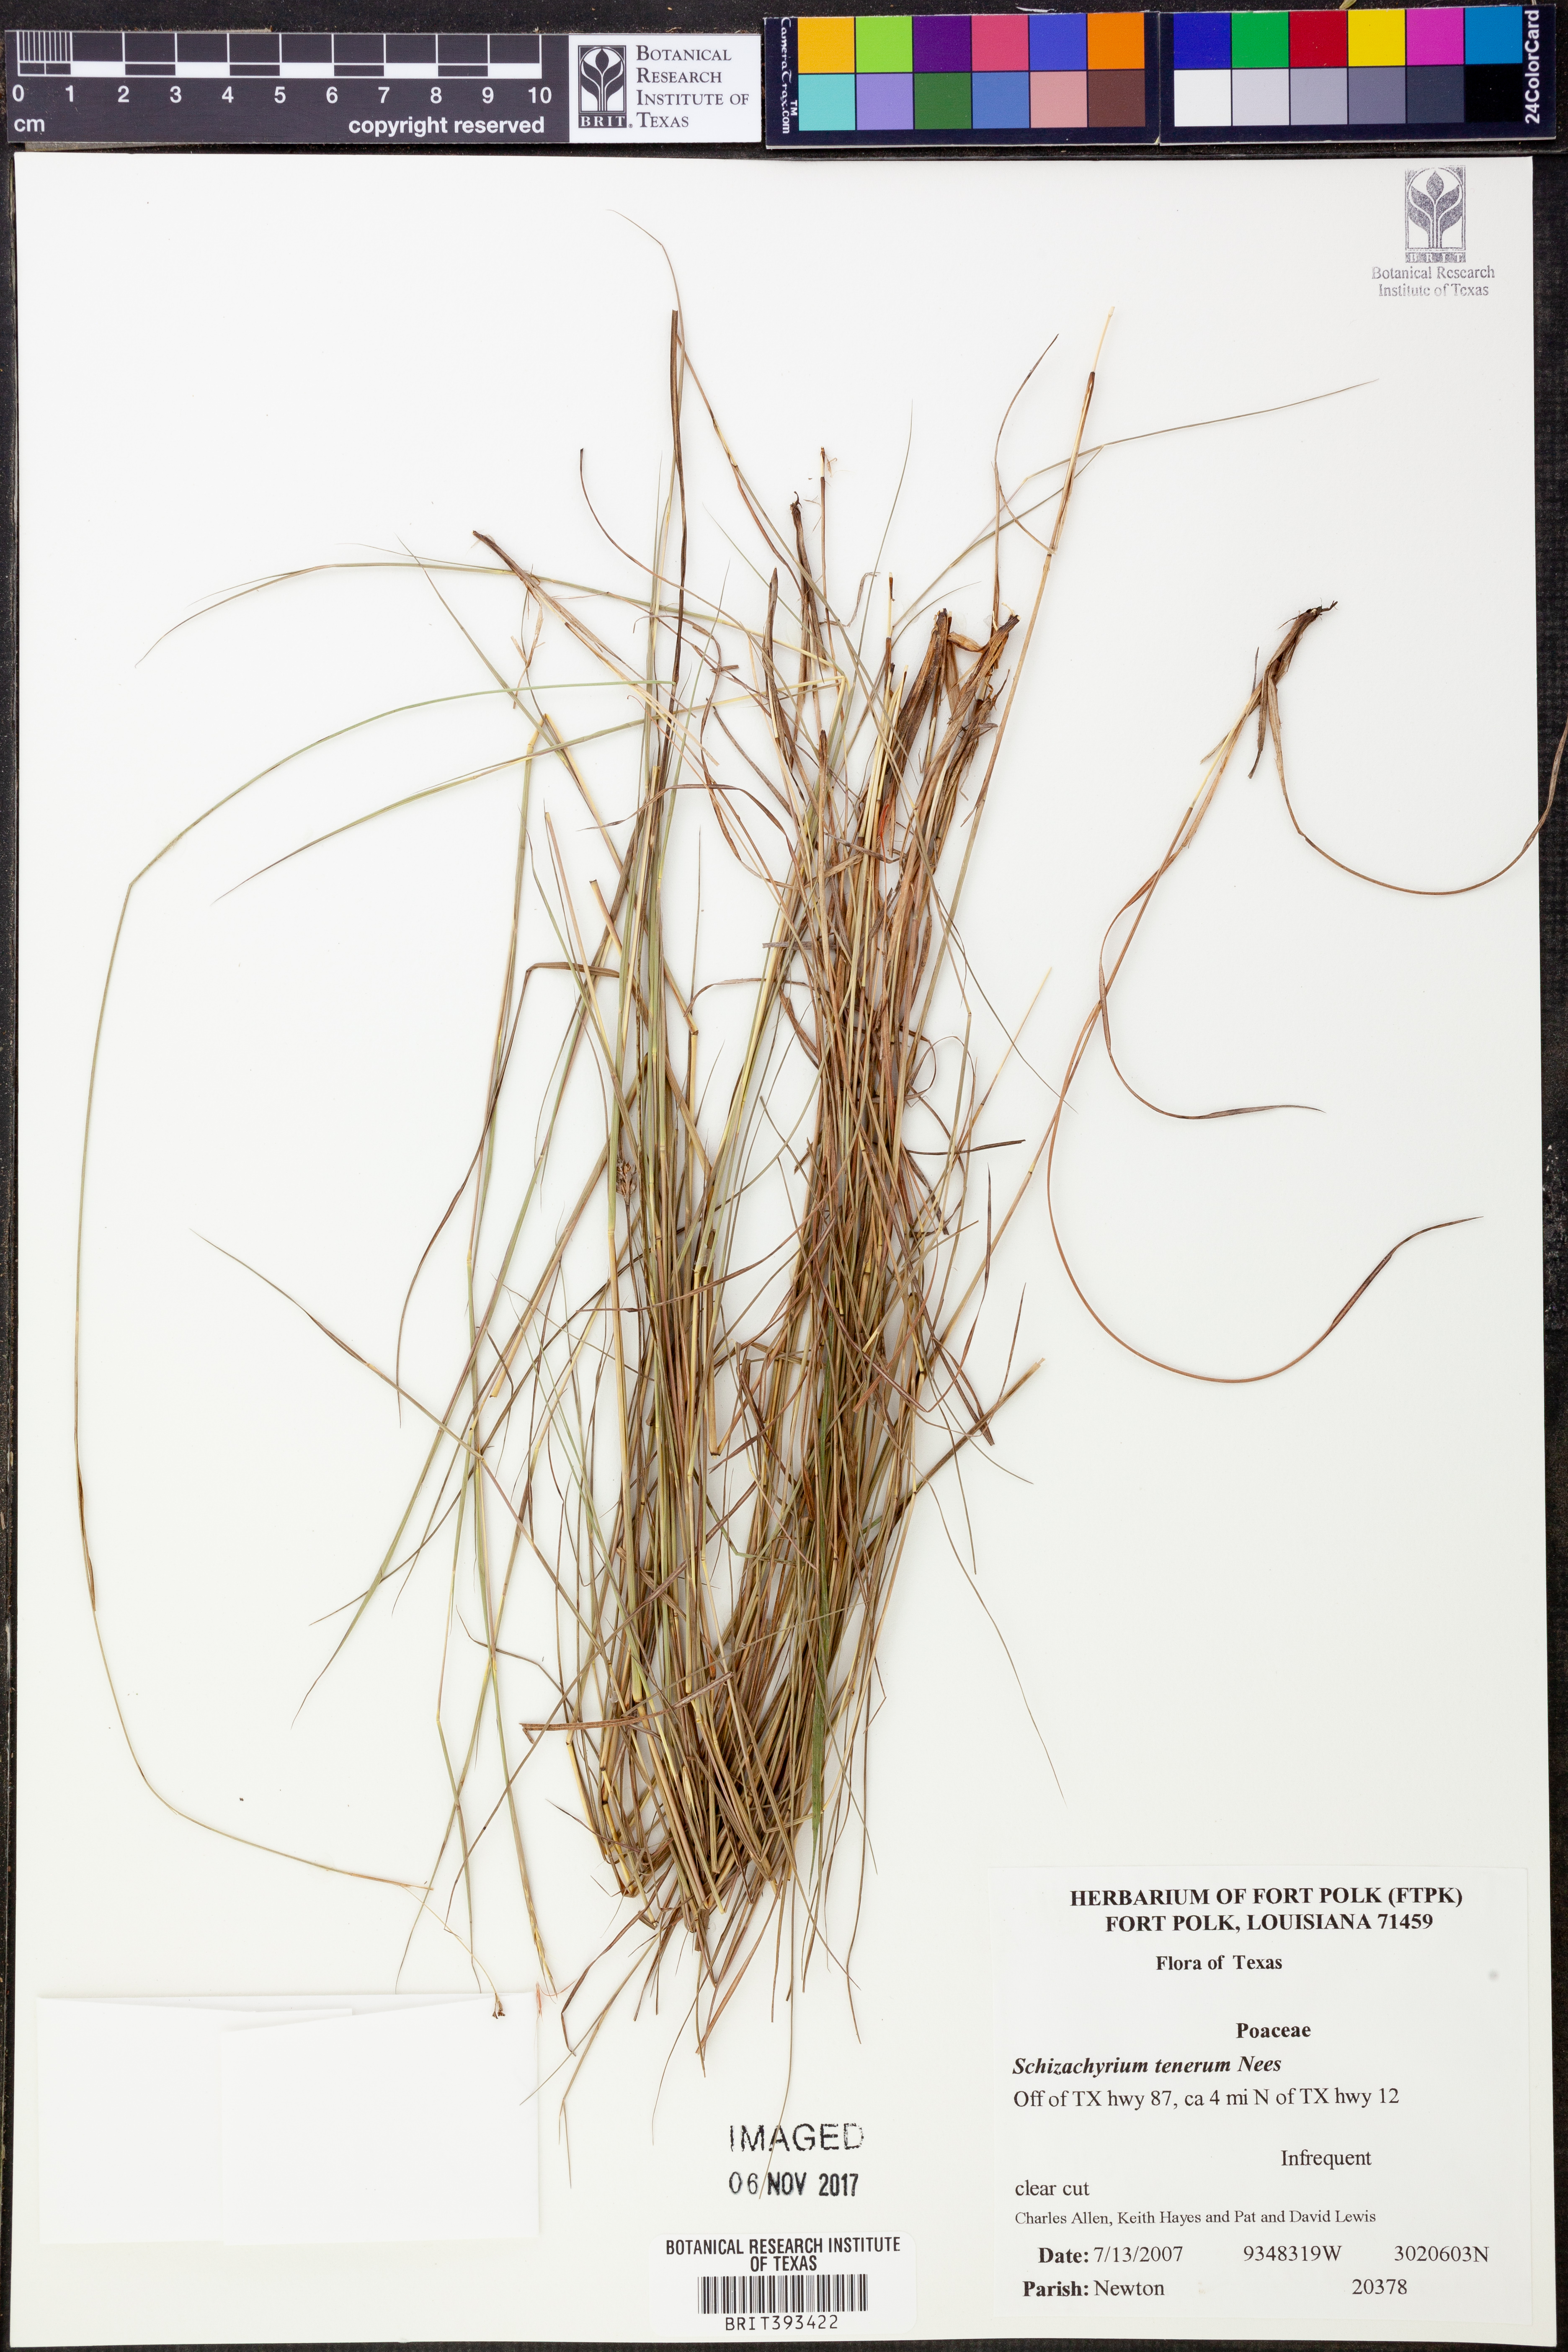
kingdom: Plantae
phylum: Tracheophyta
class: Liliopsida
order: Poales
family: Poaceae
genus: Andropogon
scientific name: Andropogon tener
